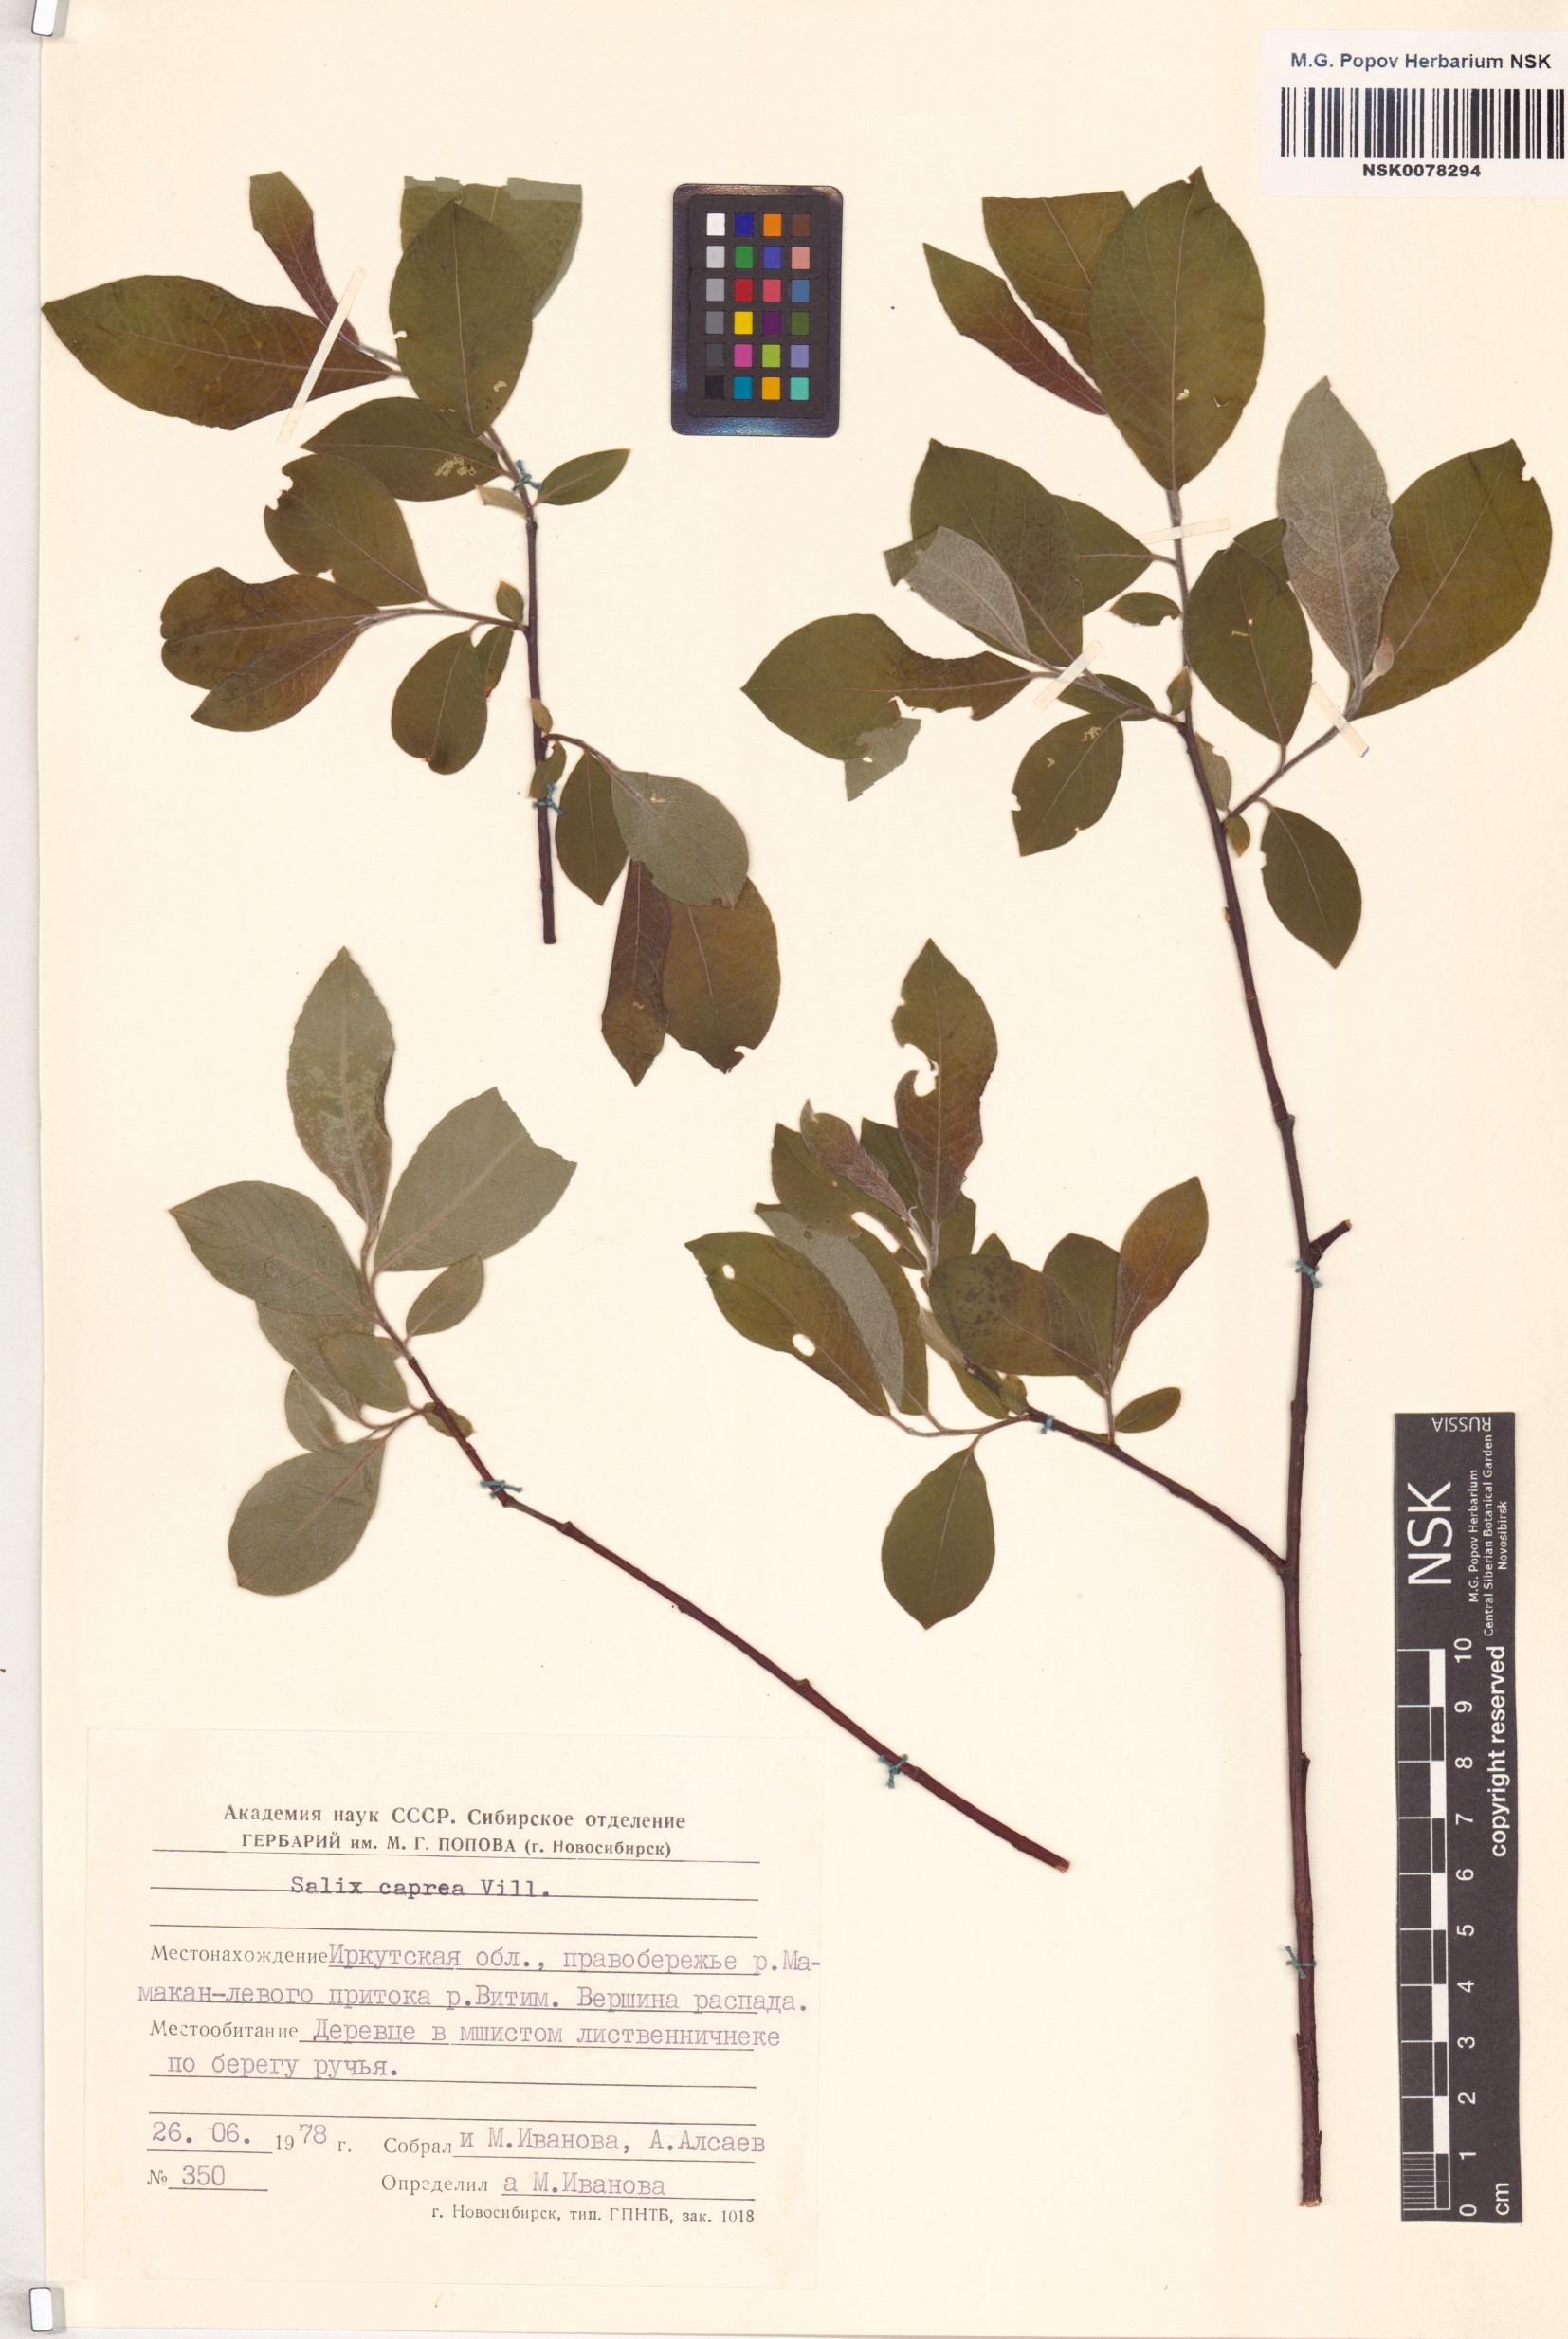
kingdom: Plantae
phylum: Tracheophyta
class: Magnoliopsida
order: Malpighiales
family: Salicaceae
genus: Salix
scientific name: Salix caprea
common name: Goat willow
